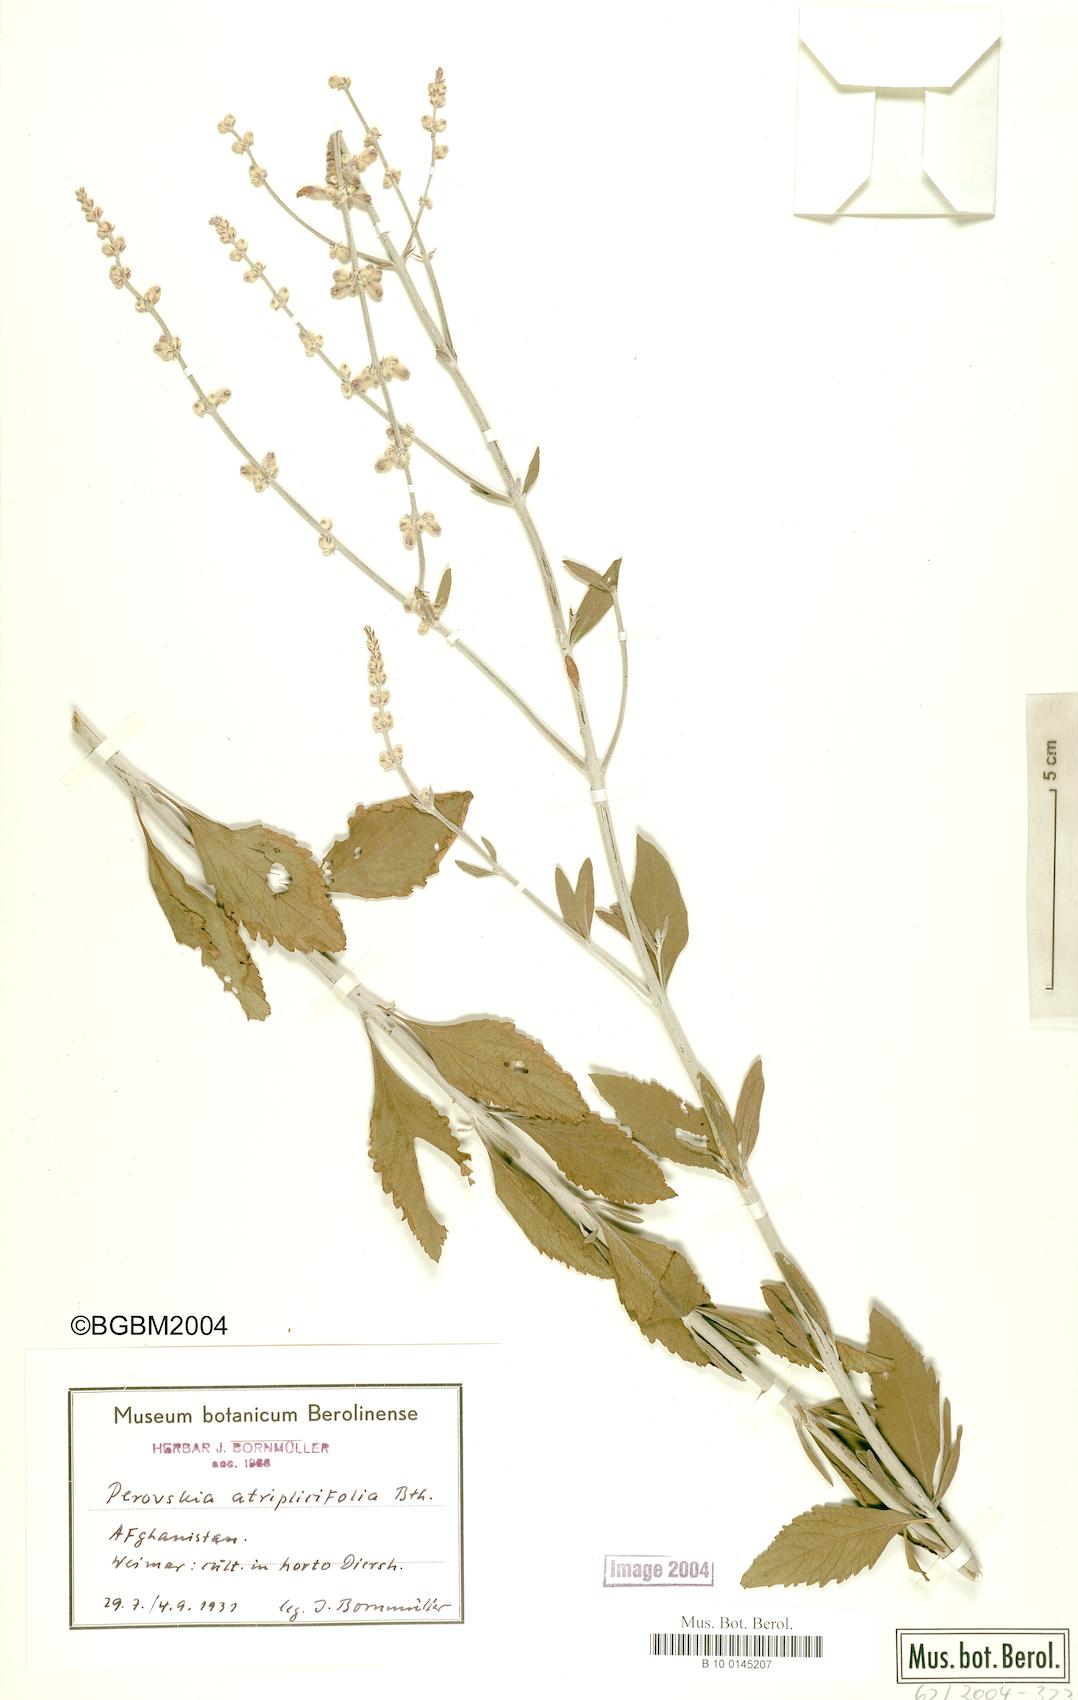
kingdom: Plantae
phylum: Tracheophyta
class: Magnoliopsida
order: Lamiales
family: Lamiaceae
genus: Salvia
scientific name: Salvia yangii
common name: Russian sage
